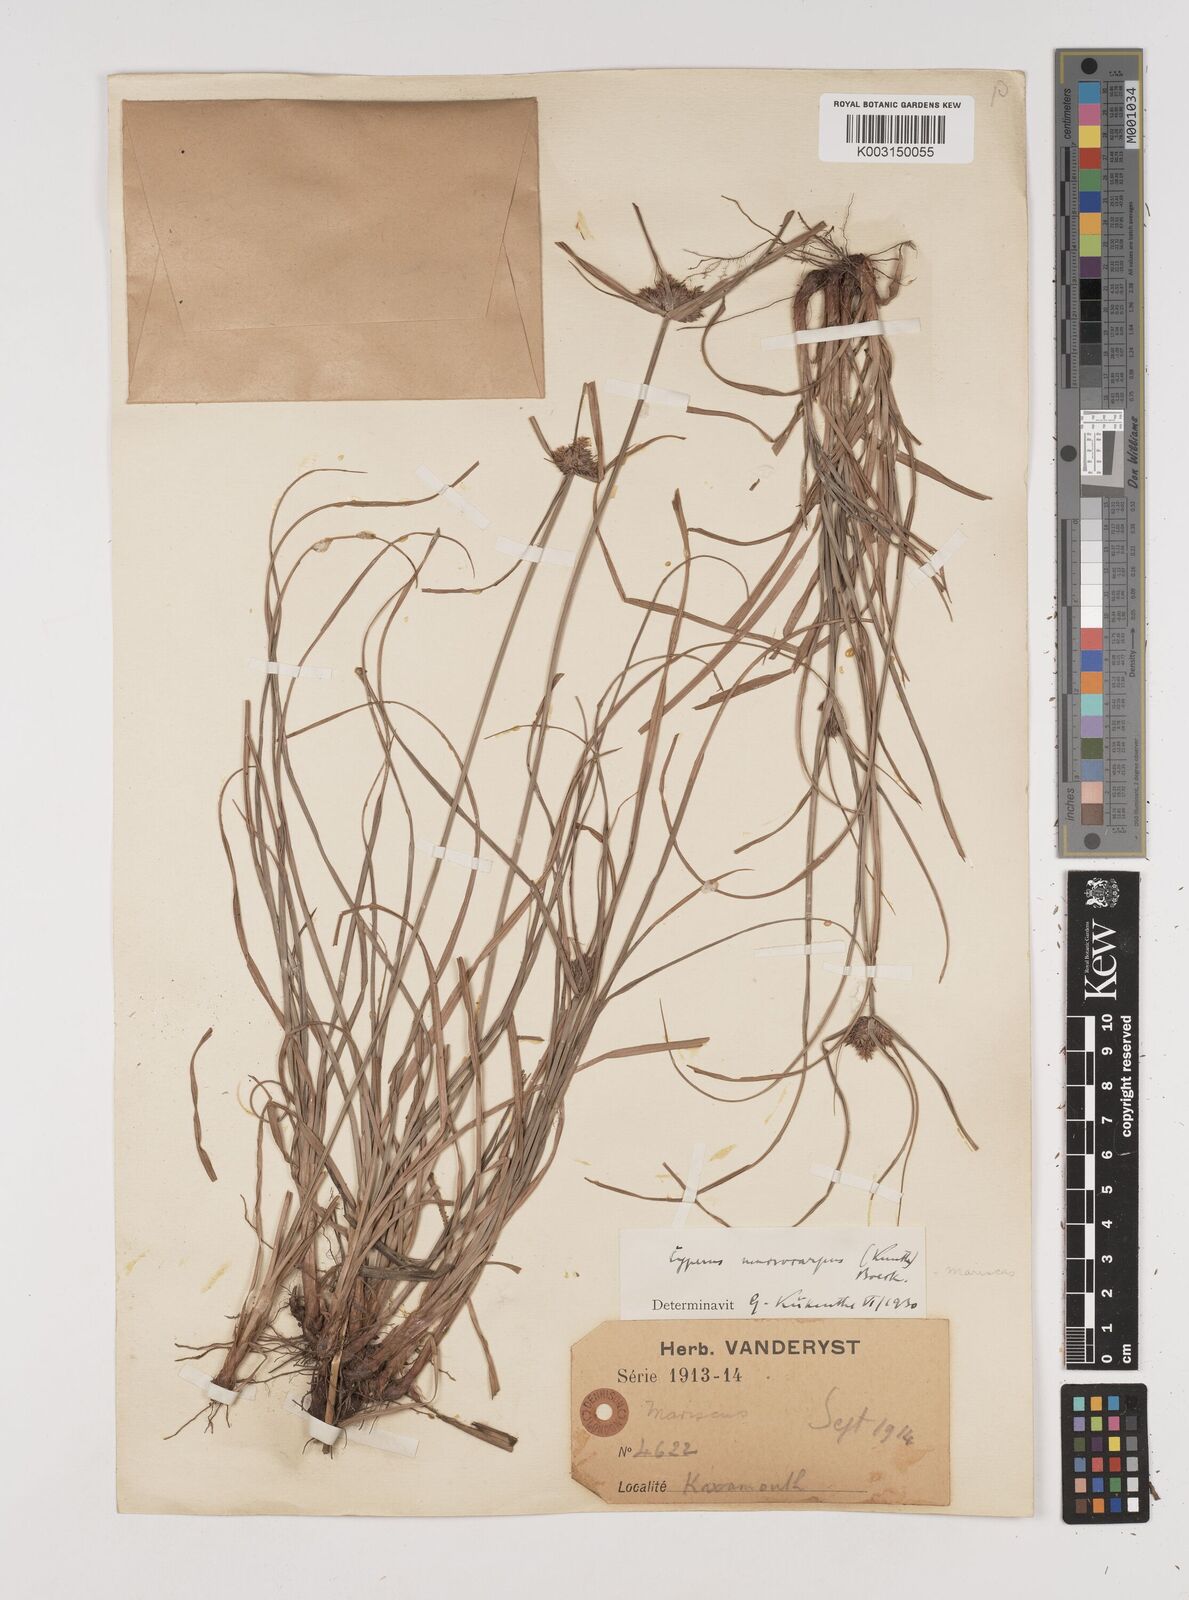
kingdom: Plantae
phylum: Tracheophyta
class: Liliopsida
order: Poales
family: Cyperaceae
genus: Cyperus
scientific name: Cyperus macrocarpus
